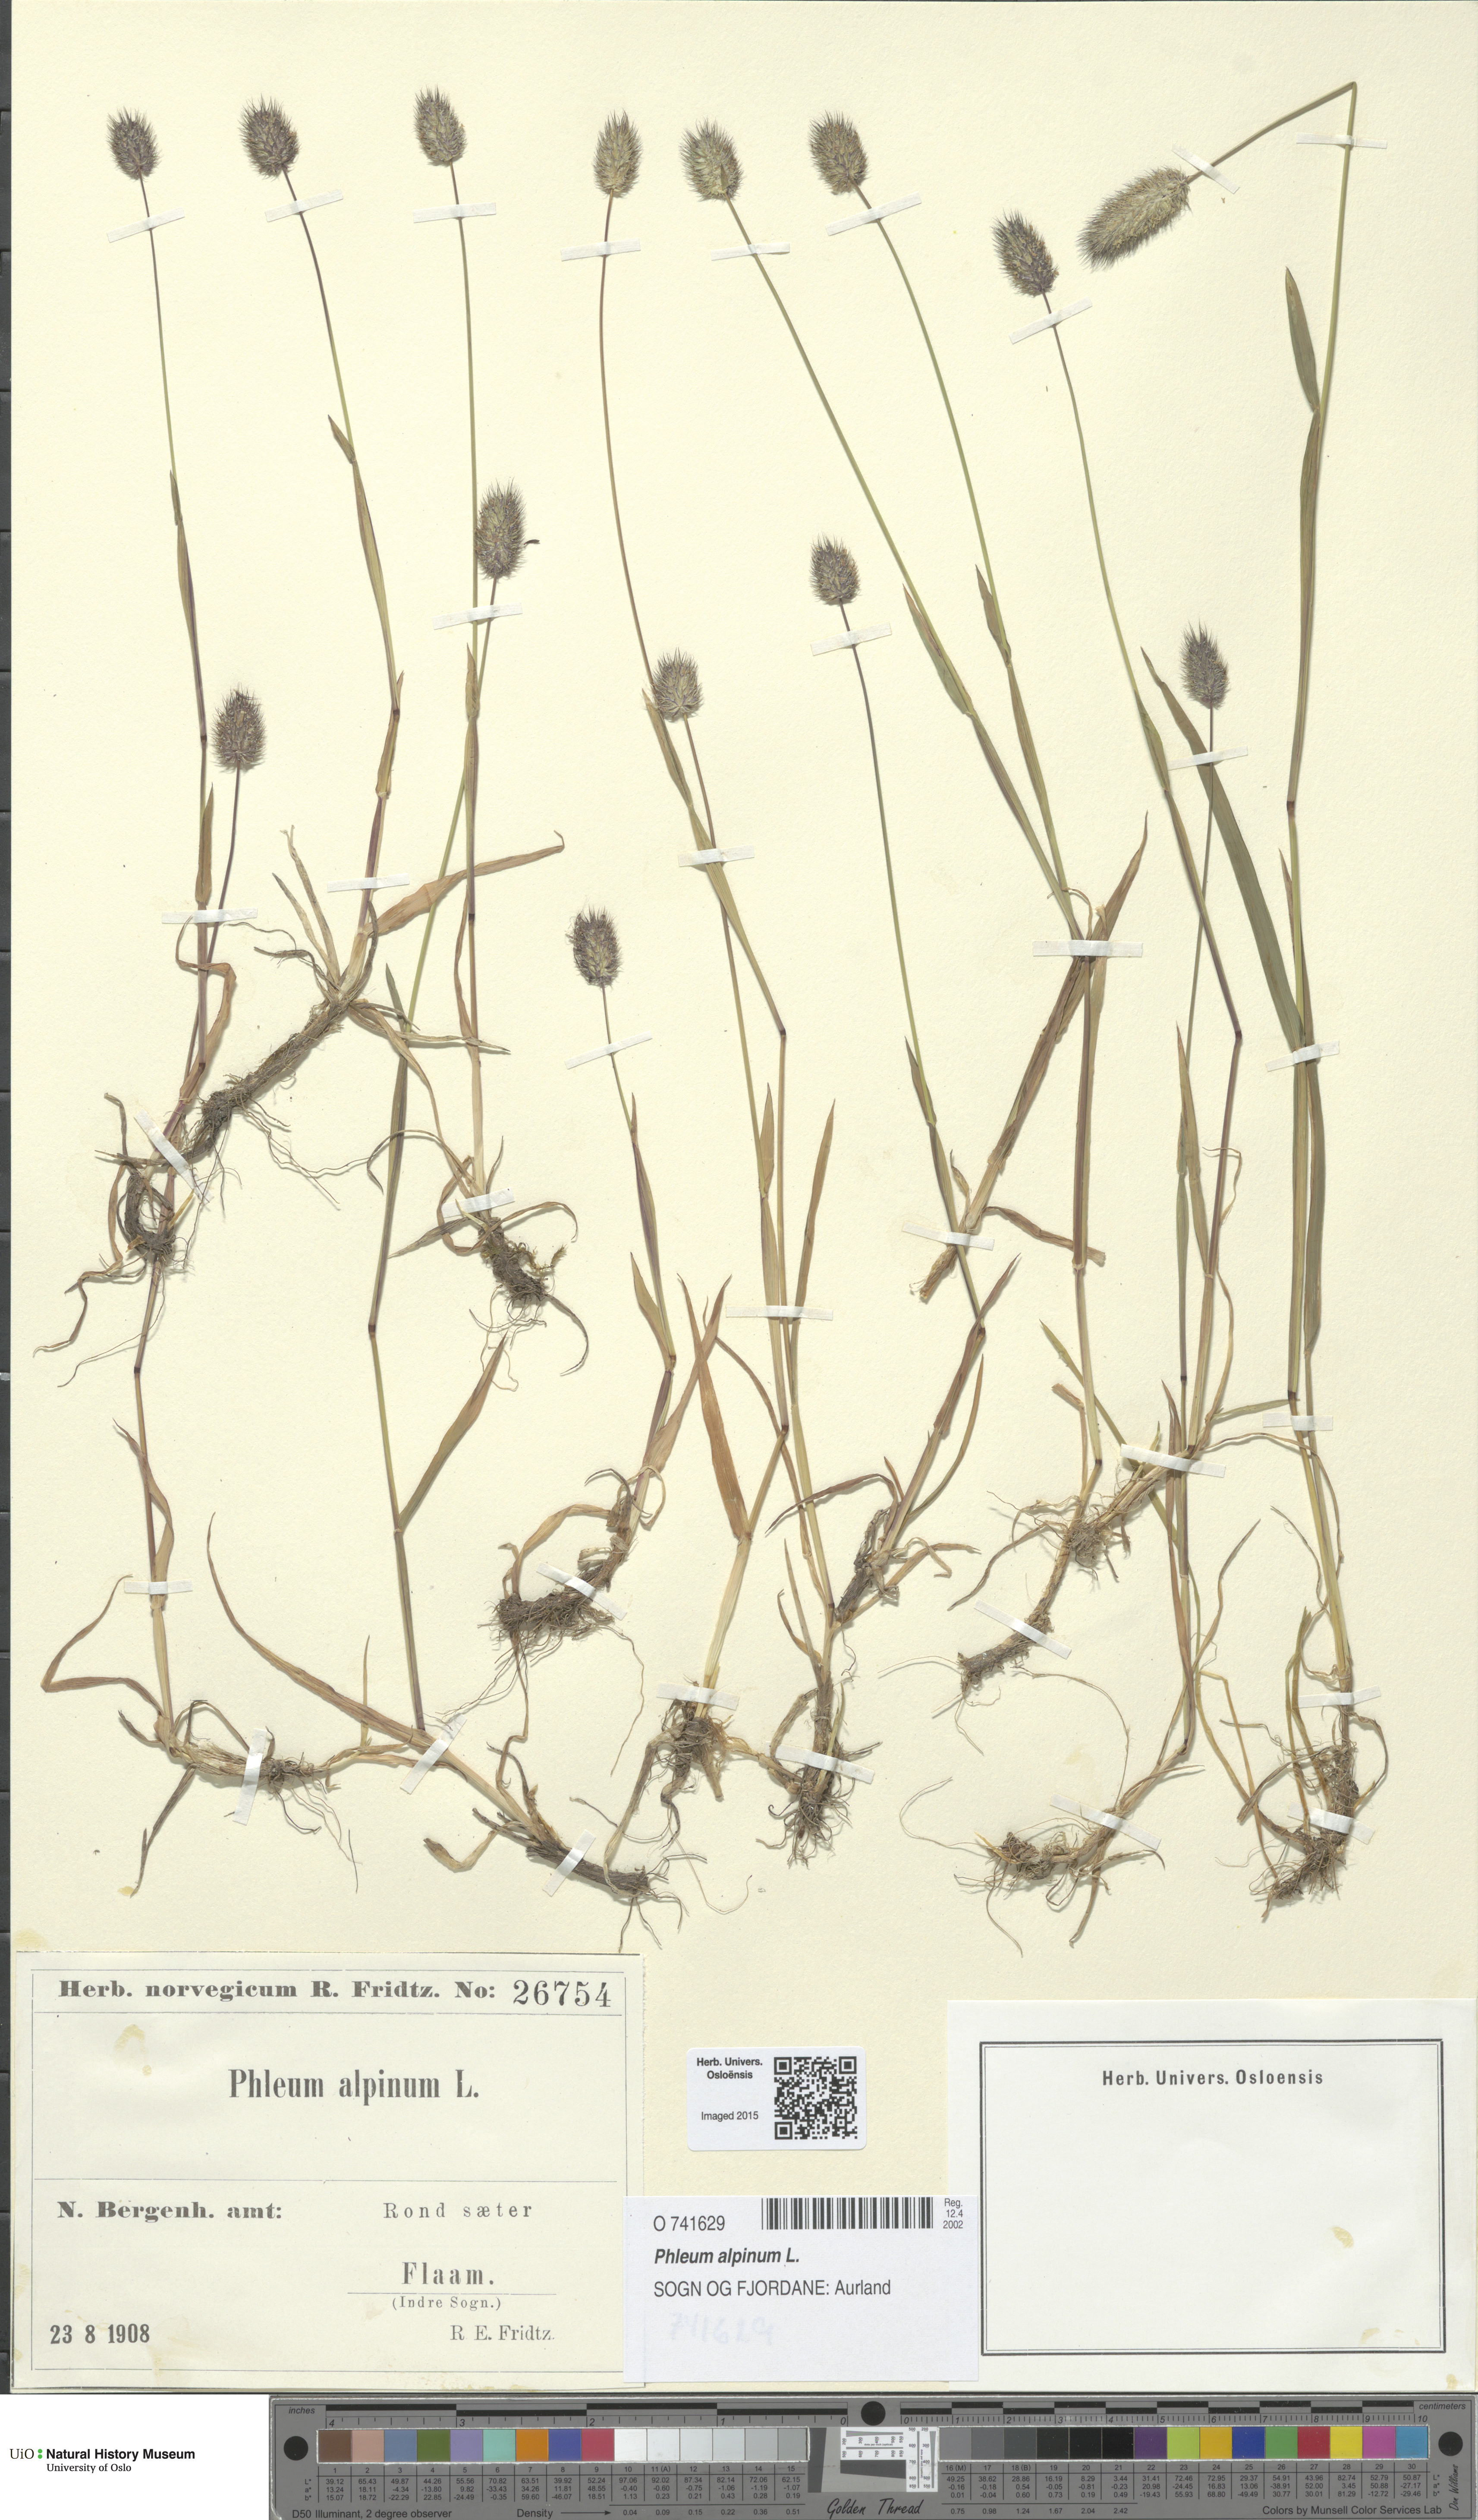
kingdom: Plantae
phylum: Tracheophyta
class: Liliopsida
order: Poales
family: Poaceae
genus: Phleum
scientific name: Phleum alpinum
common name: Alpine cat's-tail
